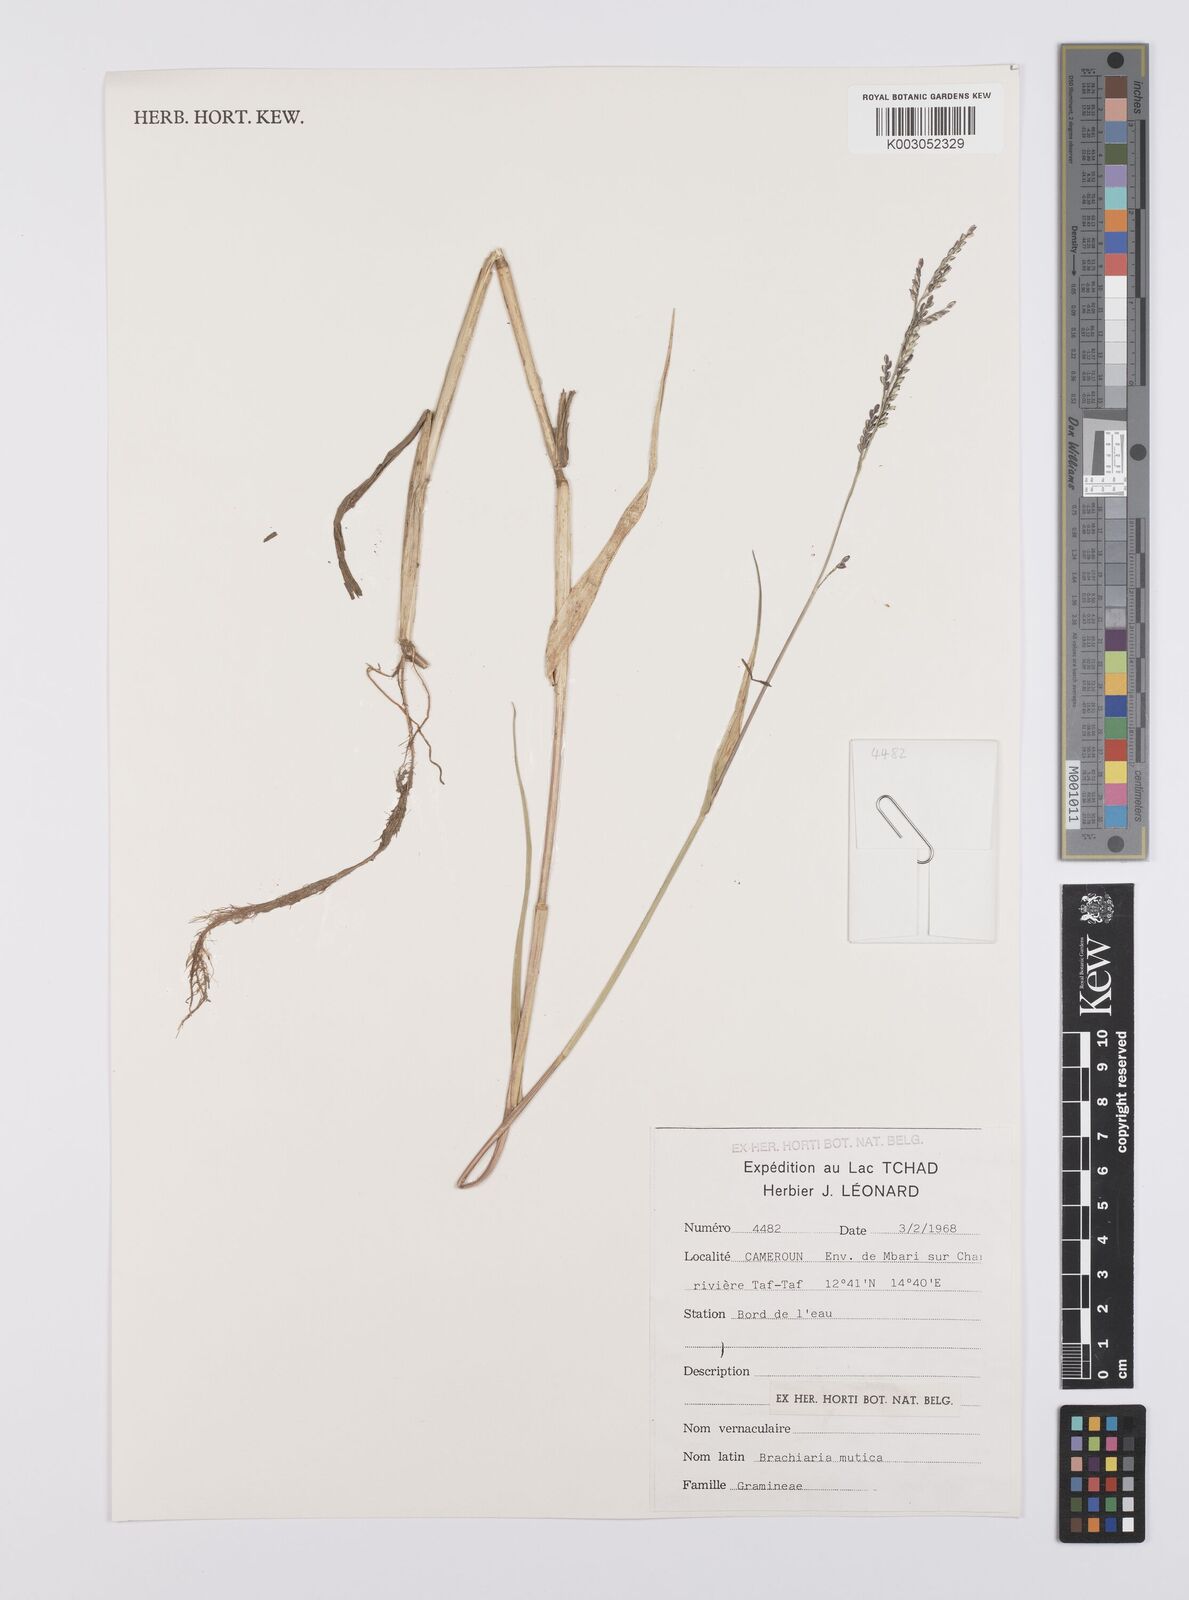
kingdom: Plantae
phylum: Tracheophyta
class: Liliopsida
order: Poales
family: Poaceae
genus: Urochloa
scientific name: Urochloa mutica
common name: Para grass
